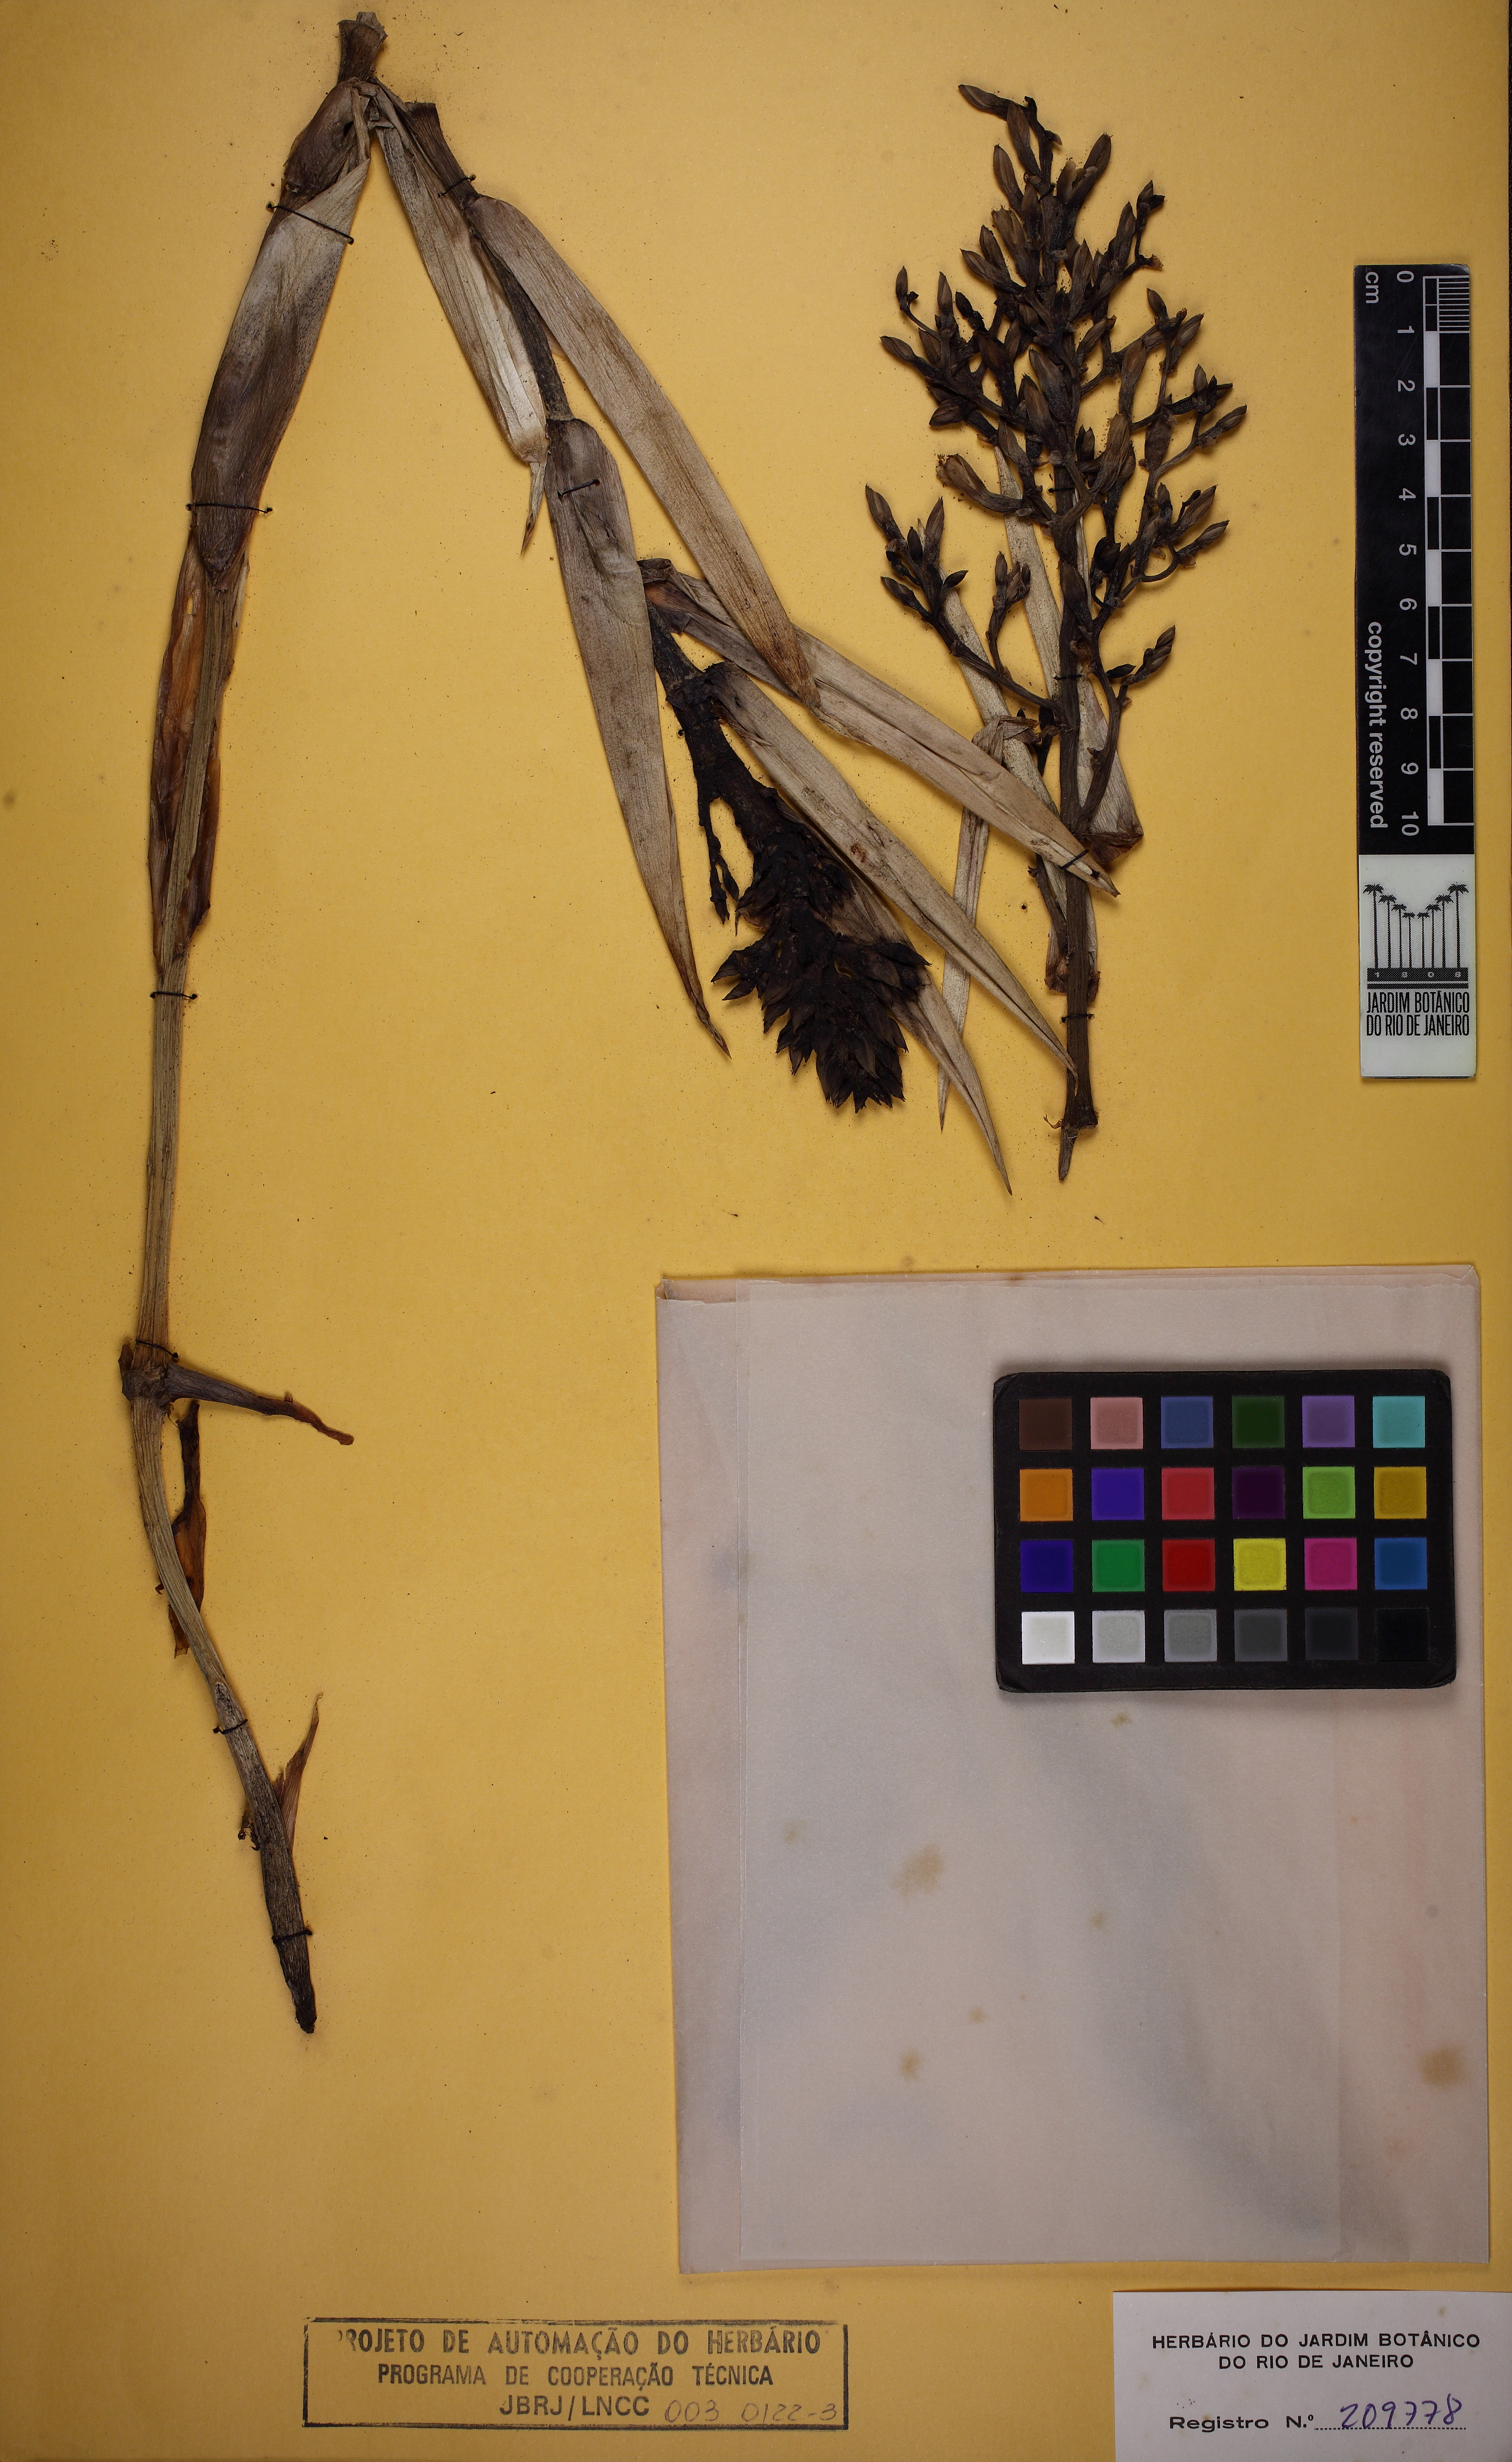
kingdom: Plantae
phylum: Tracheophyta
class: Liliopsida
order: Poales
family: Bromeliaceae
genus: Aechmea
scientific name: Aechmea egleriana
